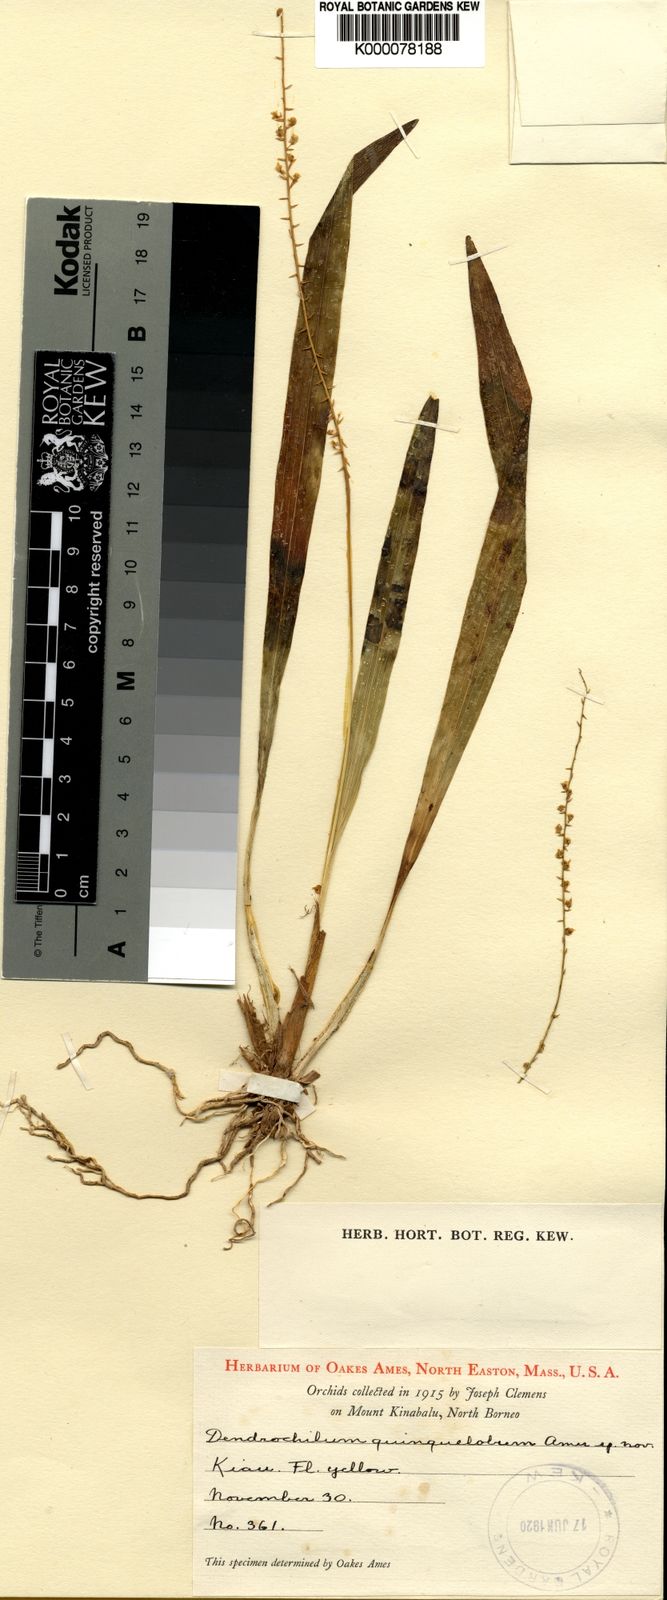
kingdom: Plantae
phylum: Tracheophyta
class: Liliopsida
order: Asparagales
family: Orchidaceae
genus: Coelogyne
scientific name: Coelogyne gibbsiae
